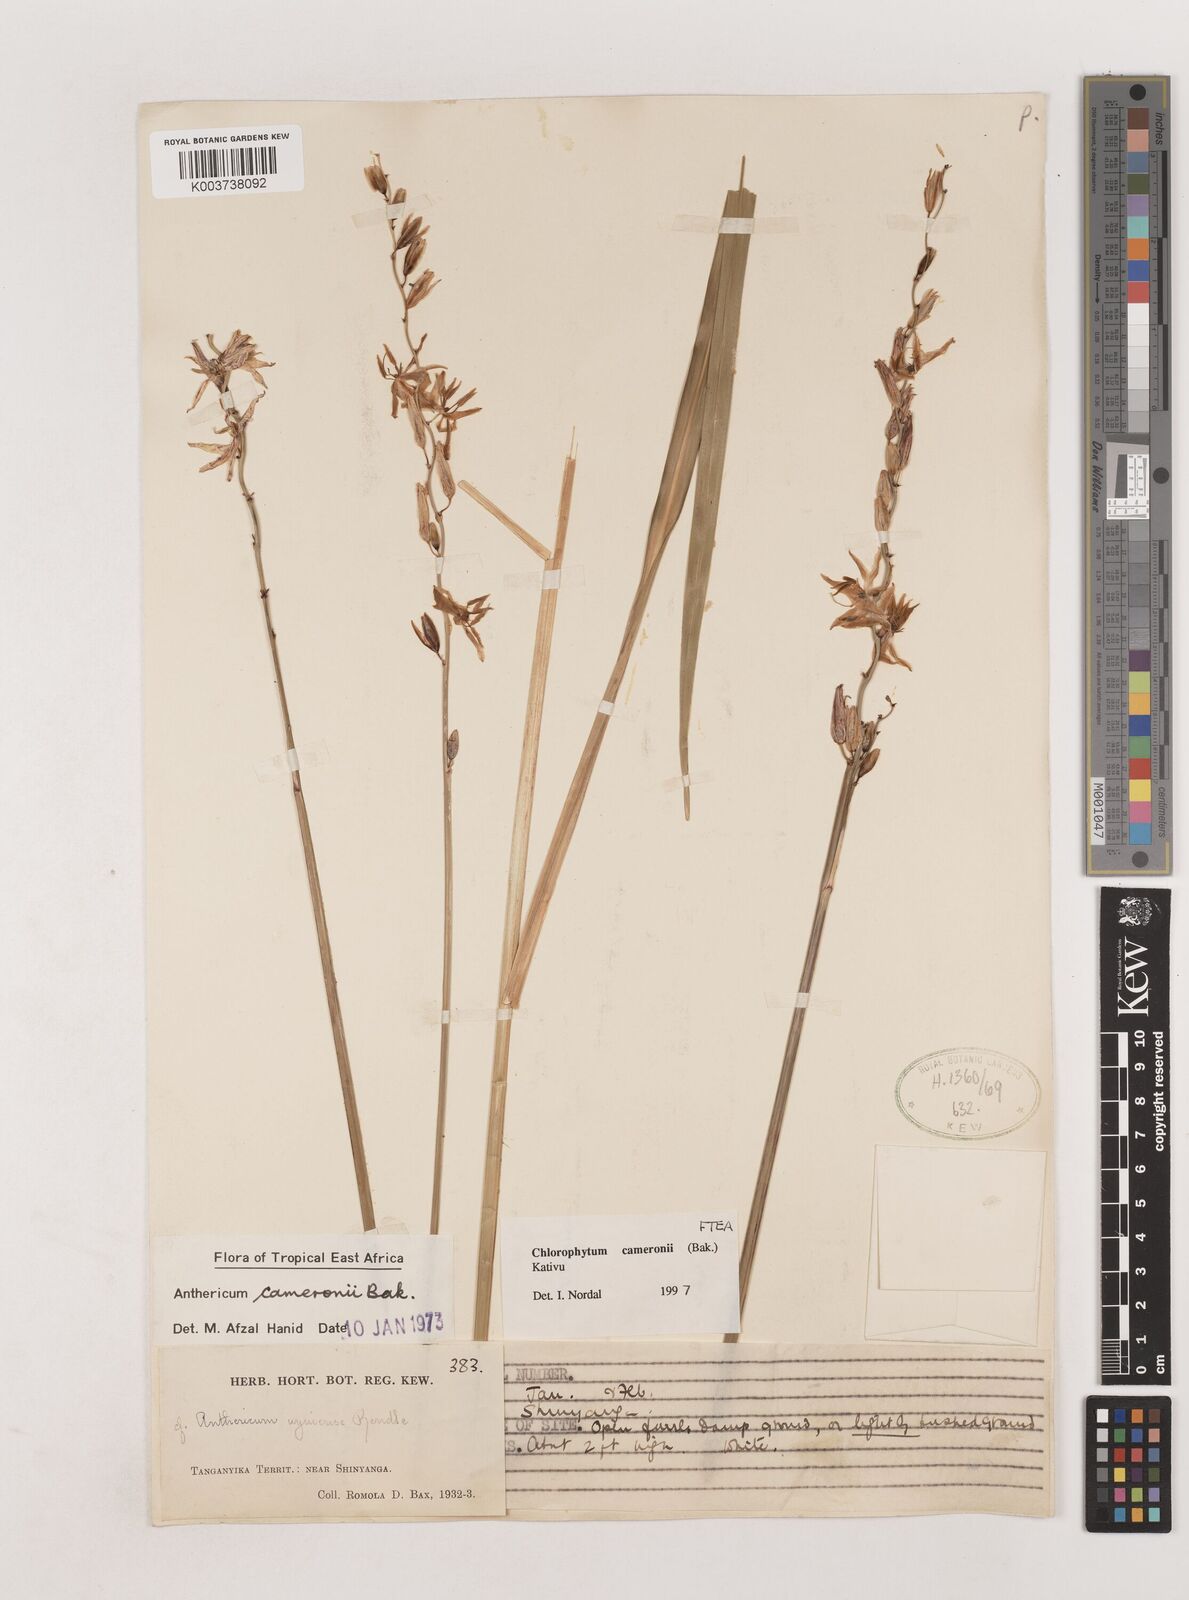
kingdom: Plantae
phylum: Tracheophyta
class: Liliopsida
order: Asparagales
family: Asparagaceae
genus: Chlorophytum
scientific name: Chlorophytum cameronii
